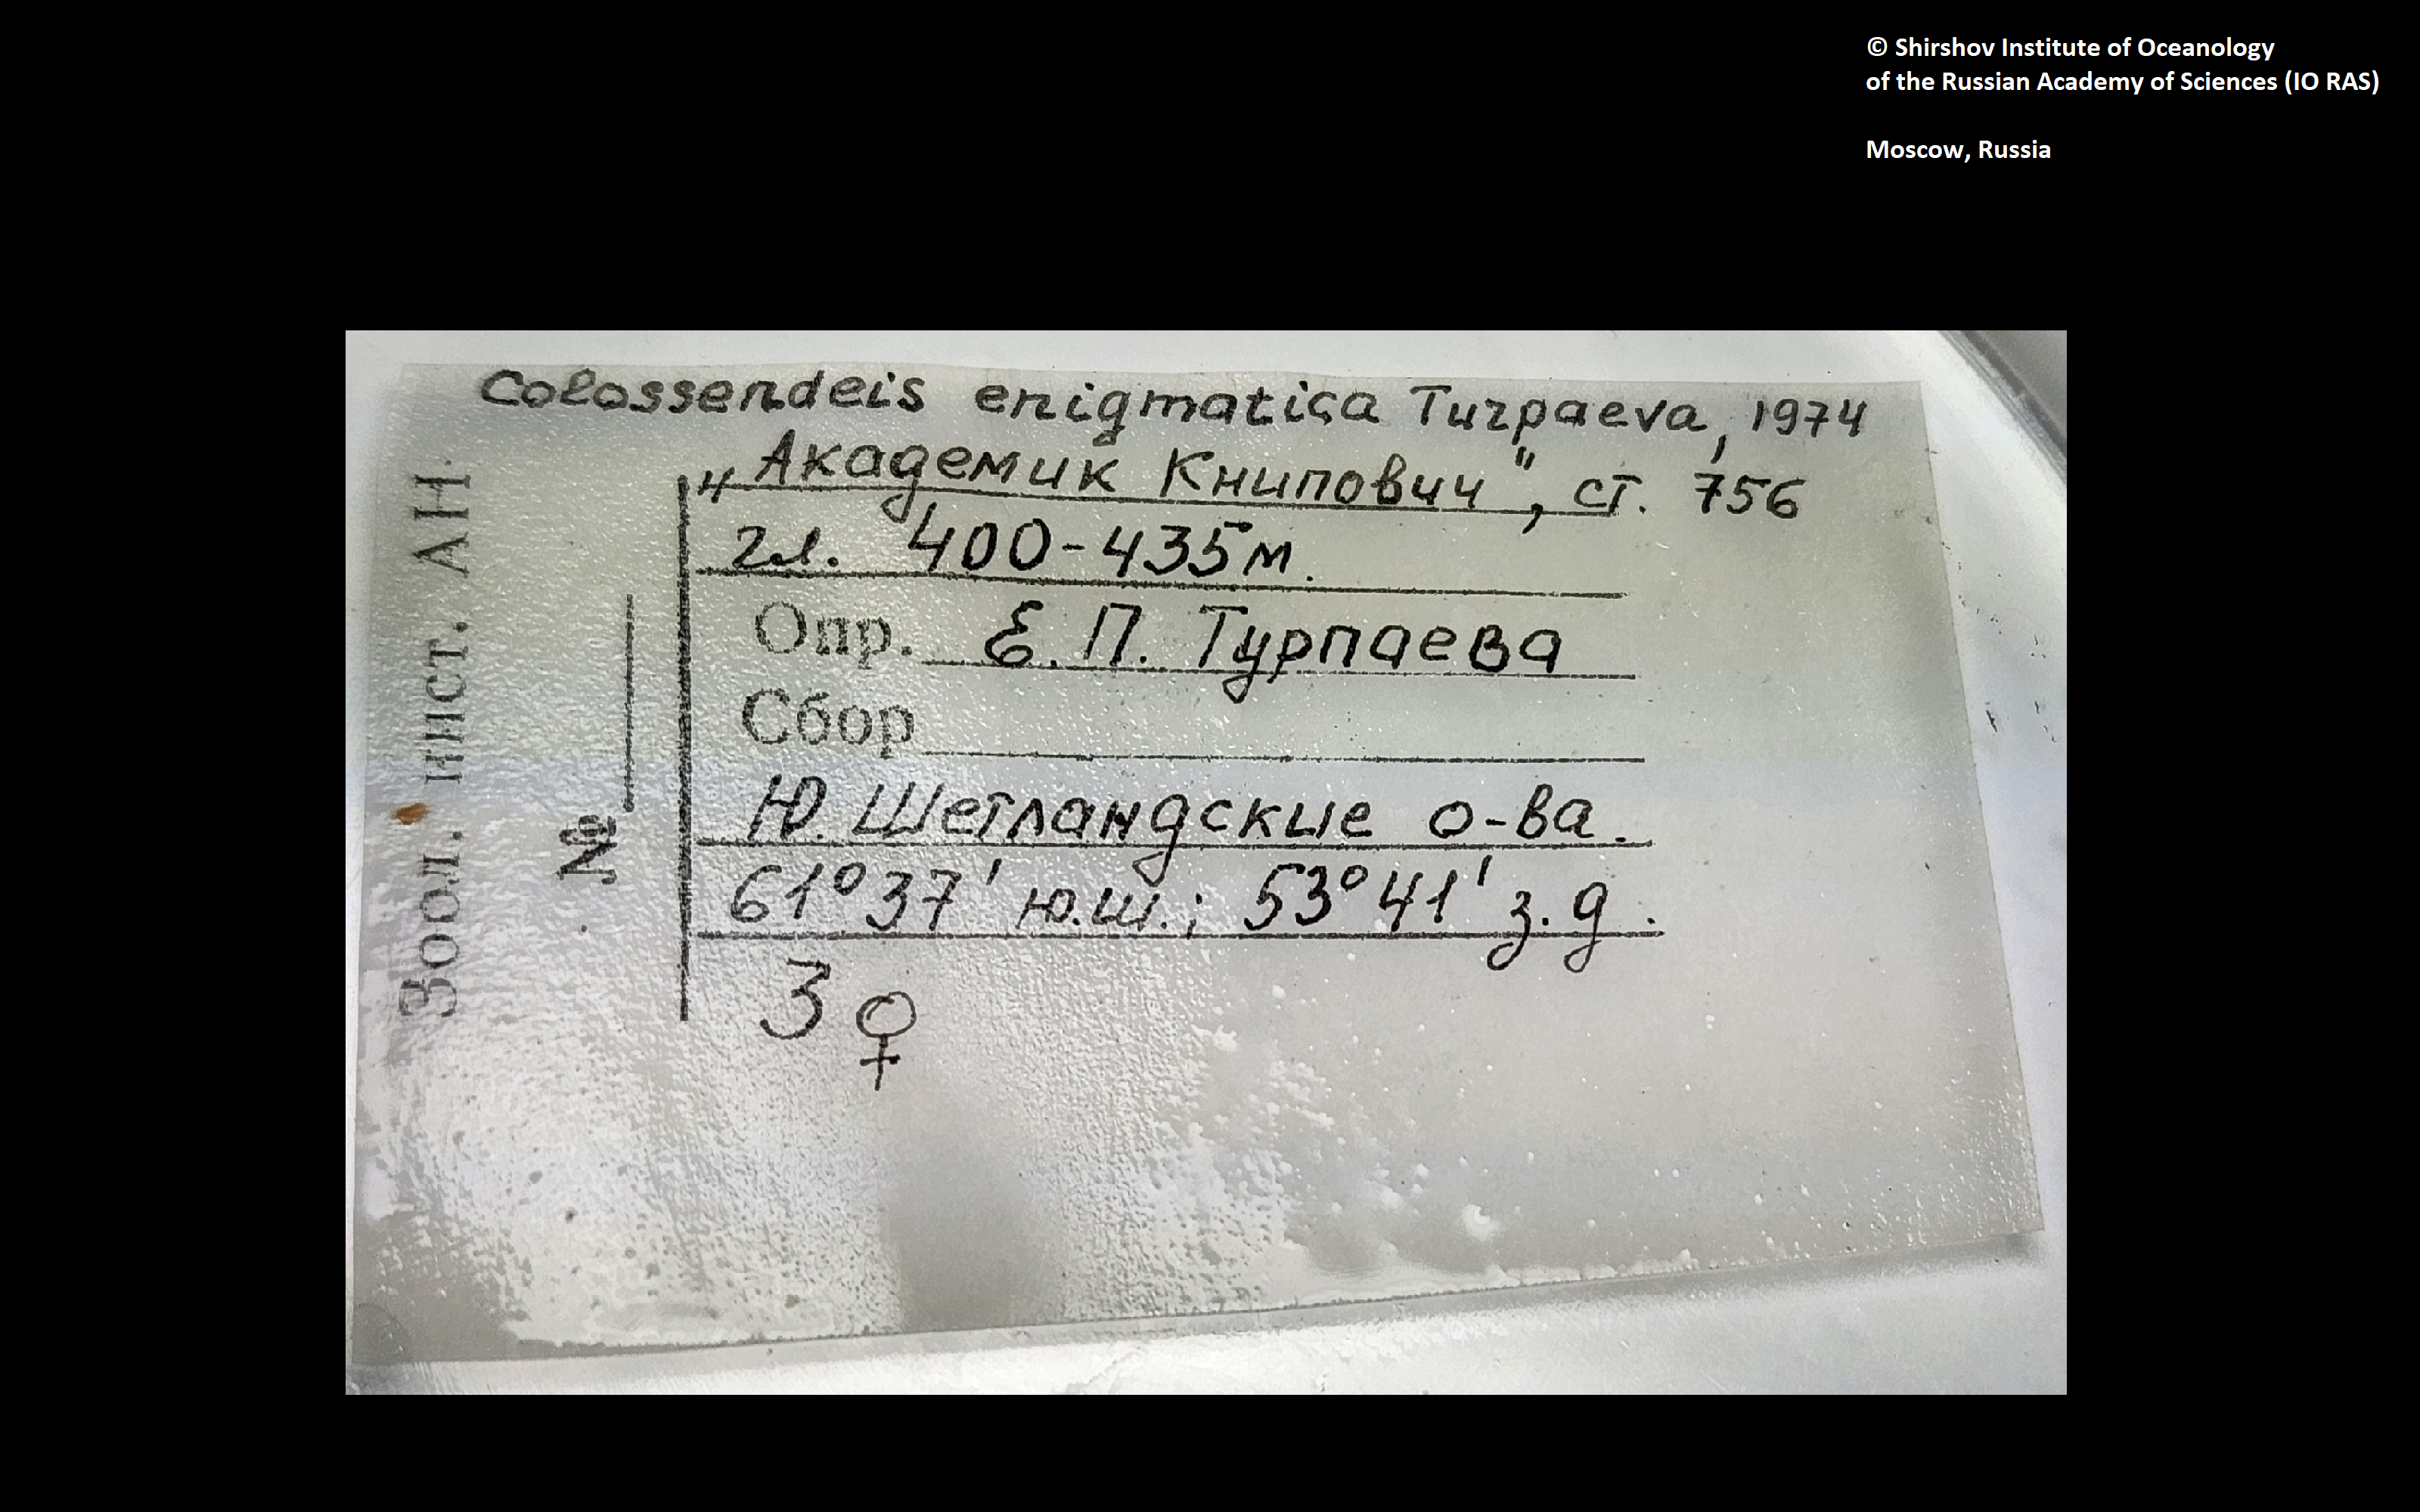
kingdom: Animalia
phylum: Arthropoda
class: Pycnogonida
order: Pantopoda
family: Colossendeidae
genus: Colossendeis
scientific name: Colossendeis enigmatica
